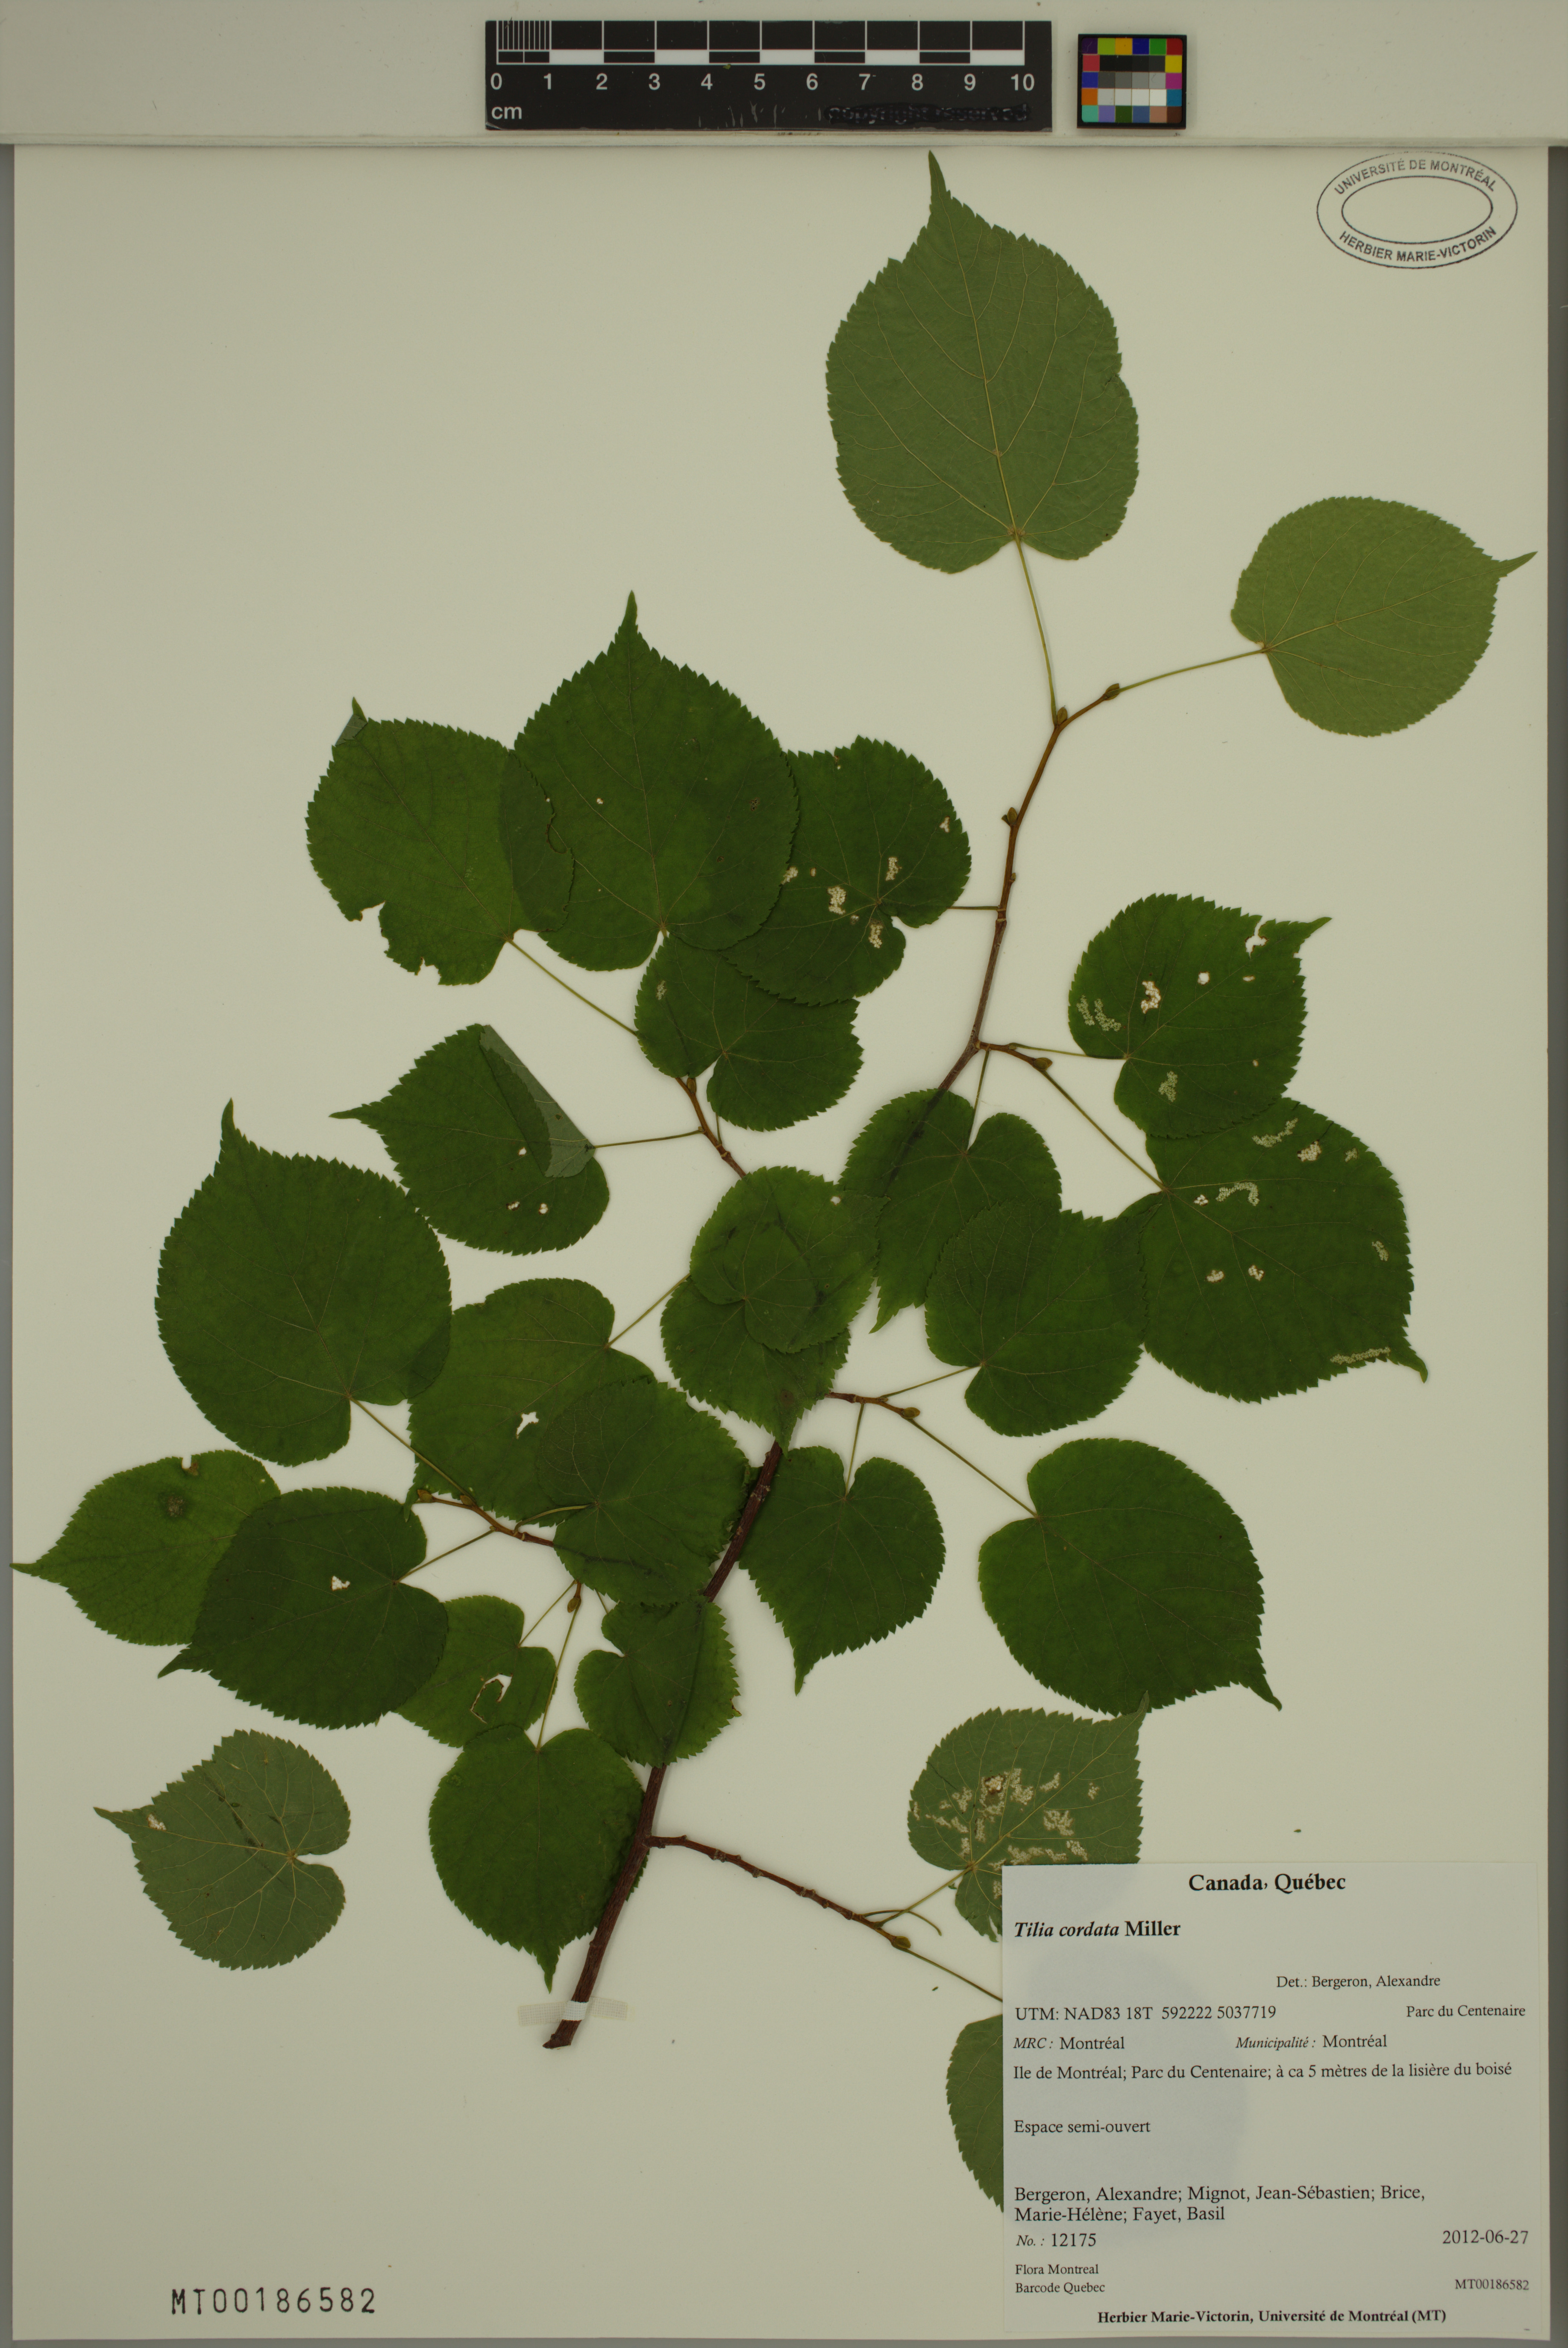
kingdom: Plantae
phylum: Tracheophyta
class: Magnoliopsida
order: Malvales
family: Malvaceae
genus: Tilia
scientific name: Tilia cordata
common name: Small-leaved lime
